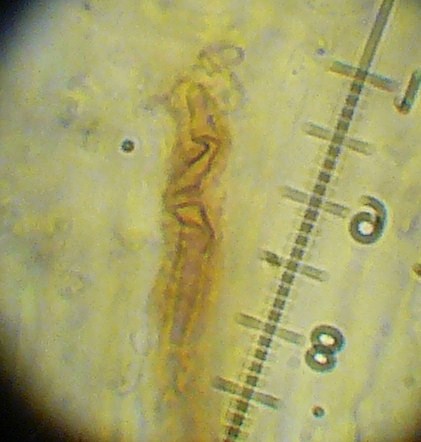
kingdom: Fungi
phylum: Ascomycota
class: Geoglossomycetes
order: Geoglossales
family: Geoglossaceae
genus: Glutinoglossum
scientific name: Glutinoglossum glutinosum
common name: slimet jordtunge
